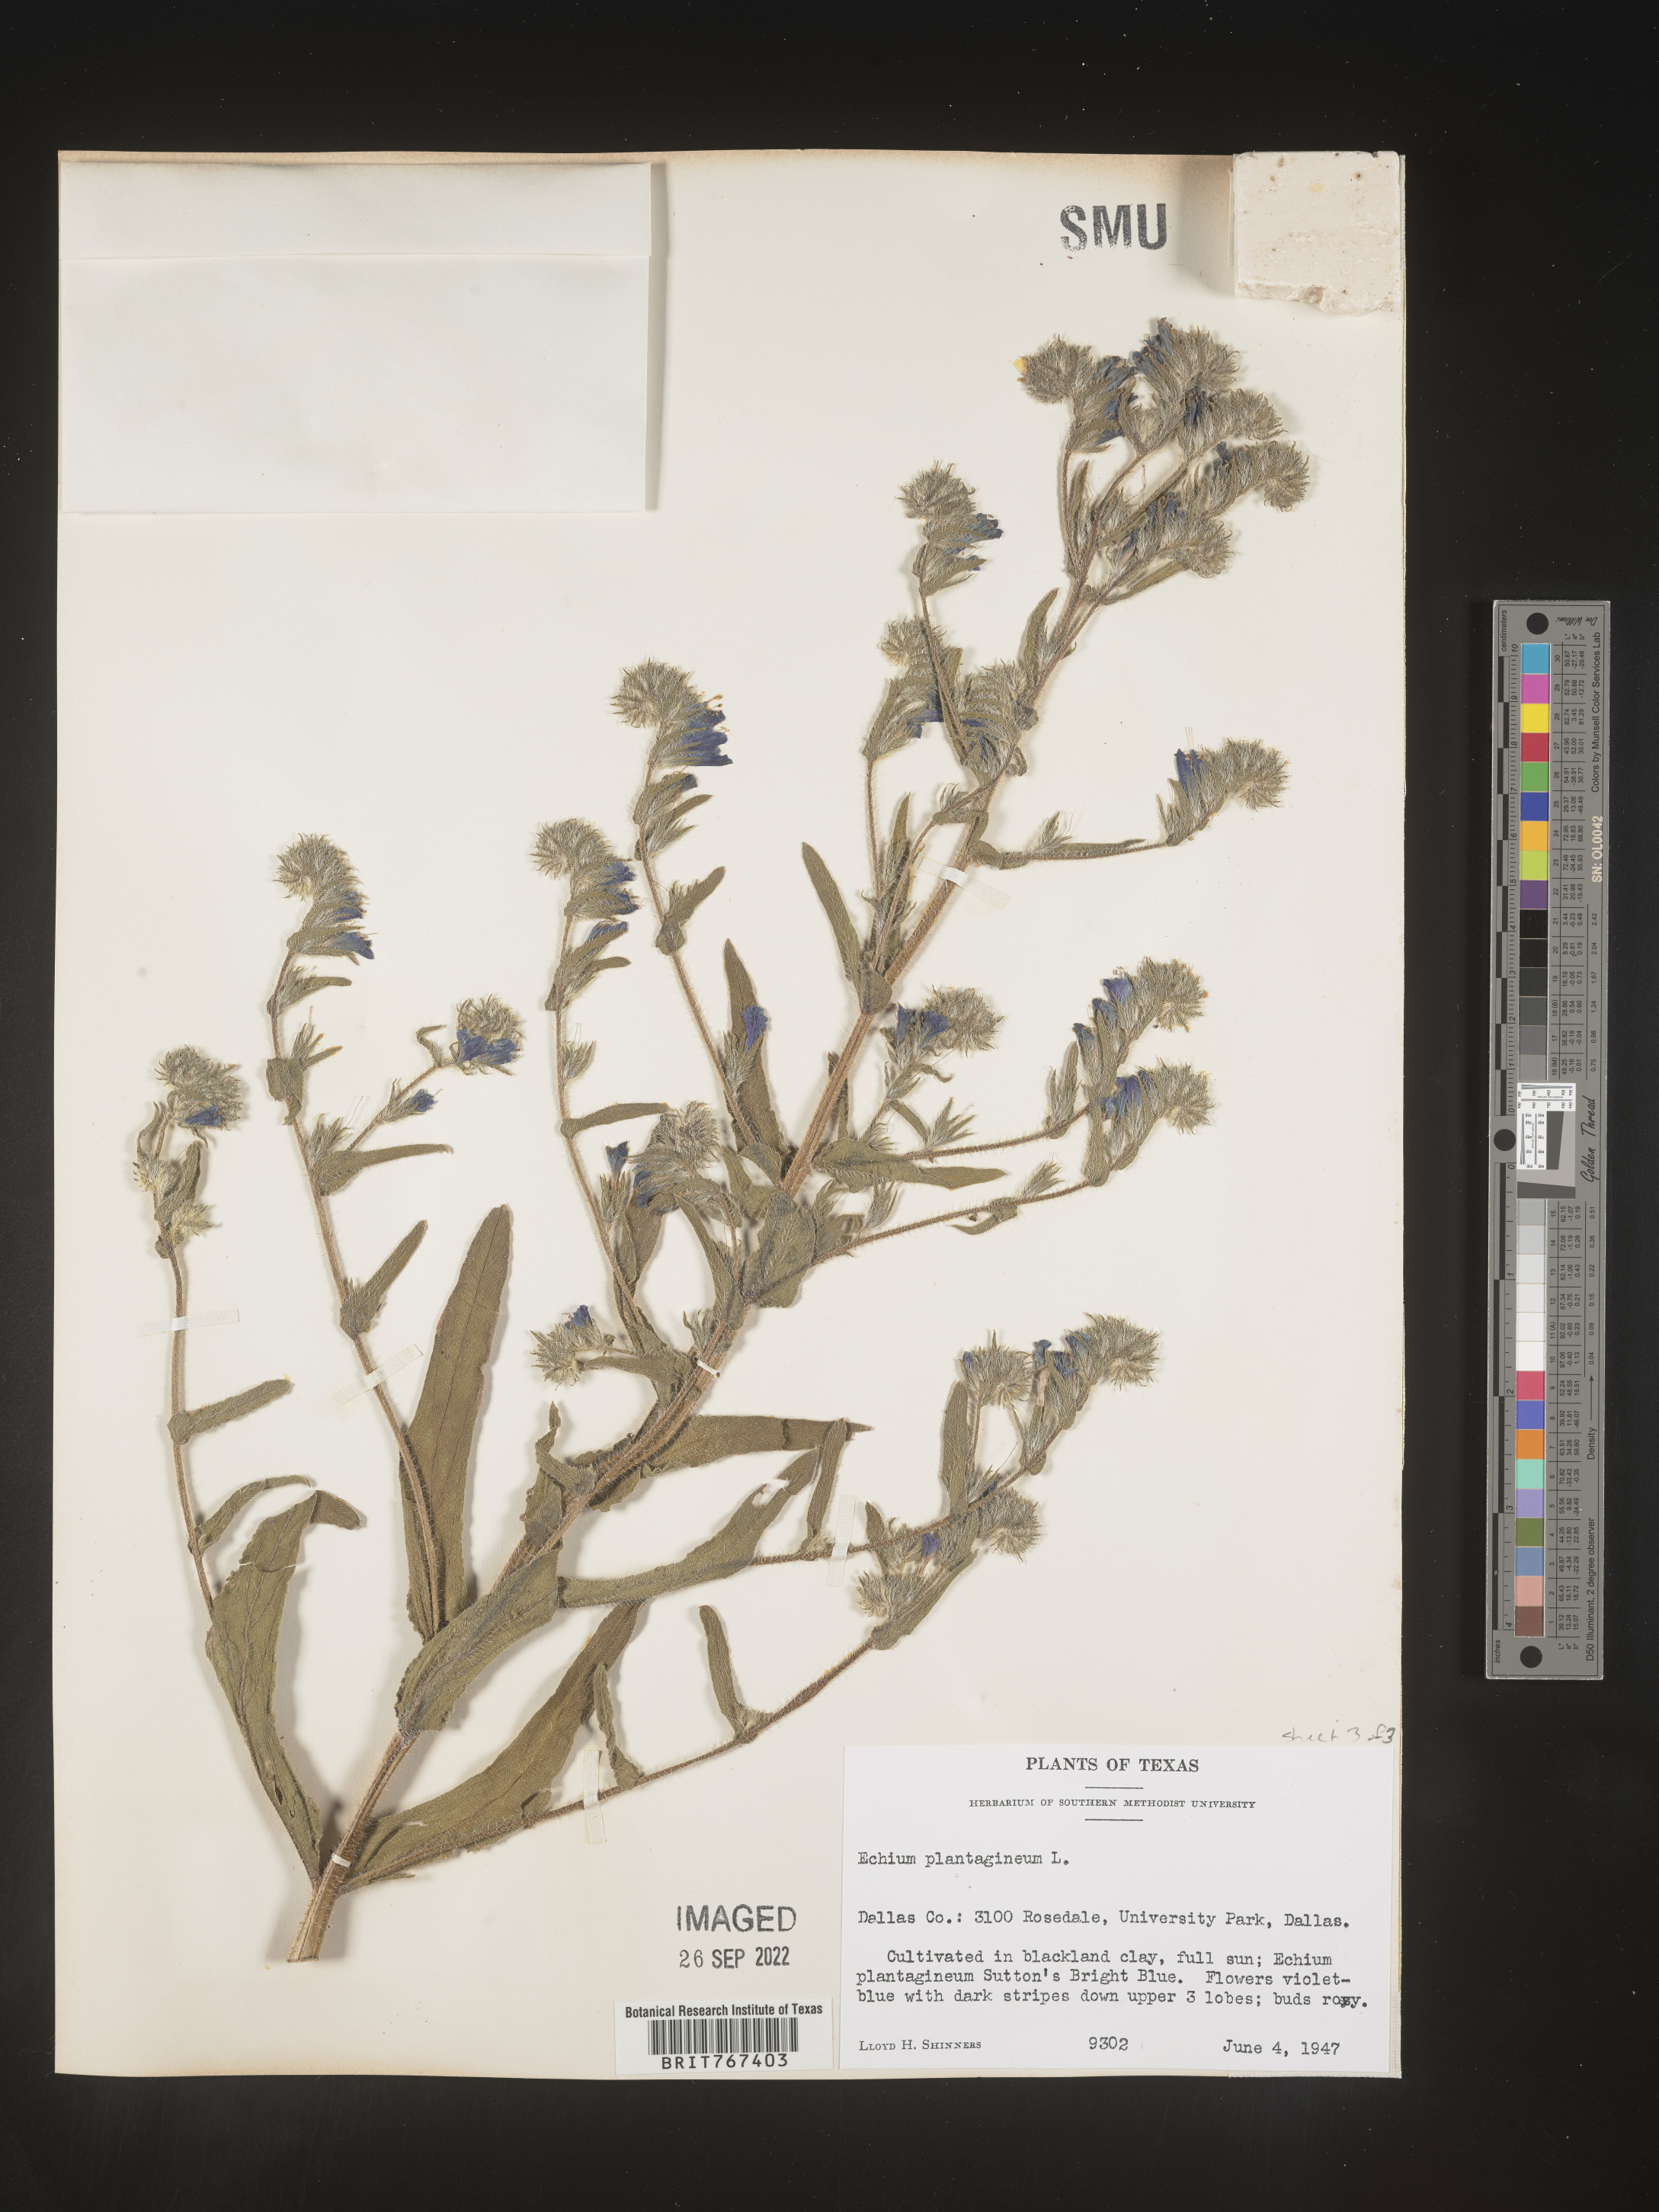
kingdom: Plantae
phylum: Tracheophyta
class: Magnoliopsida
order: Boraginales
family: Boraginaceae
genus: Echium
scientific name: Echium
